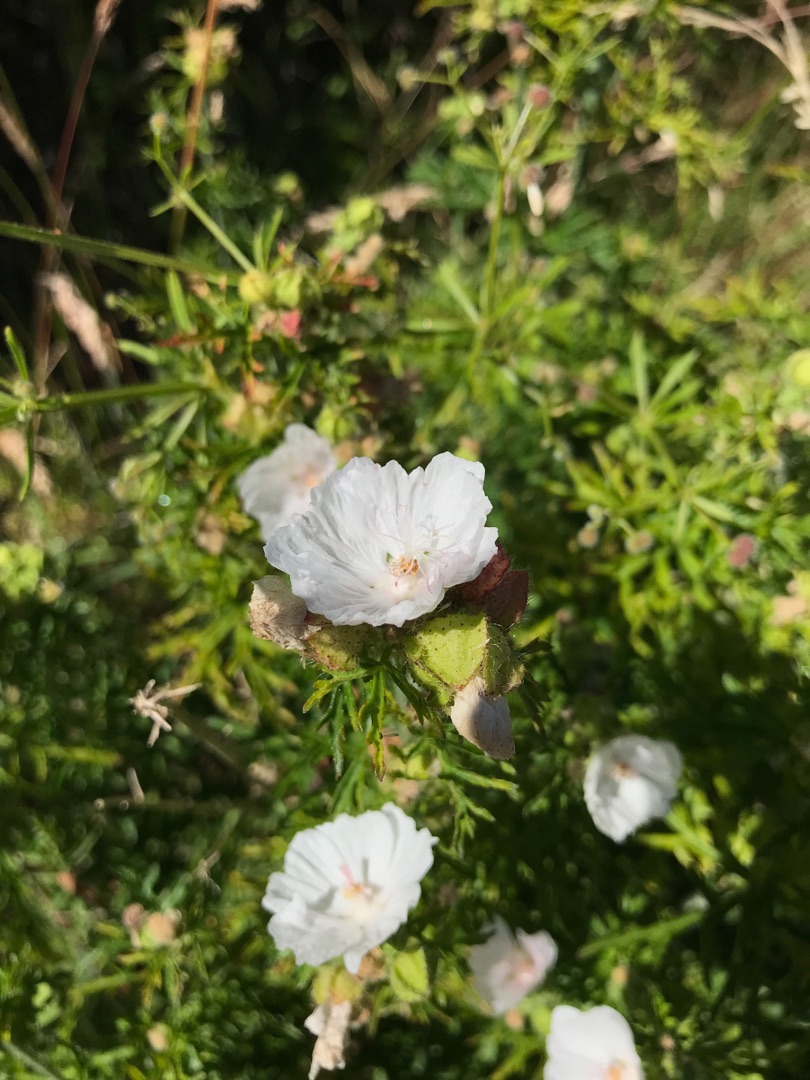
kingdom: Plantae
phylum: Tracheophyta
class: Magnoliopsida
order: Malvales
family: Malvaceae
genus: Malva
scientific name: Malva moschata
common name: Moskus-katost
